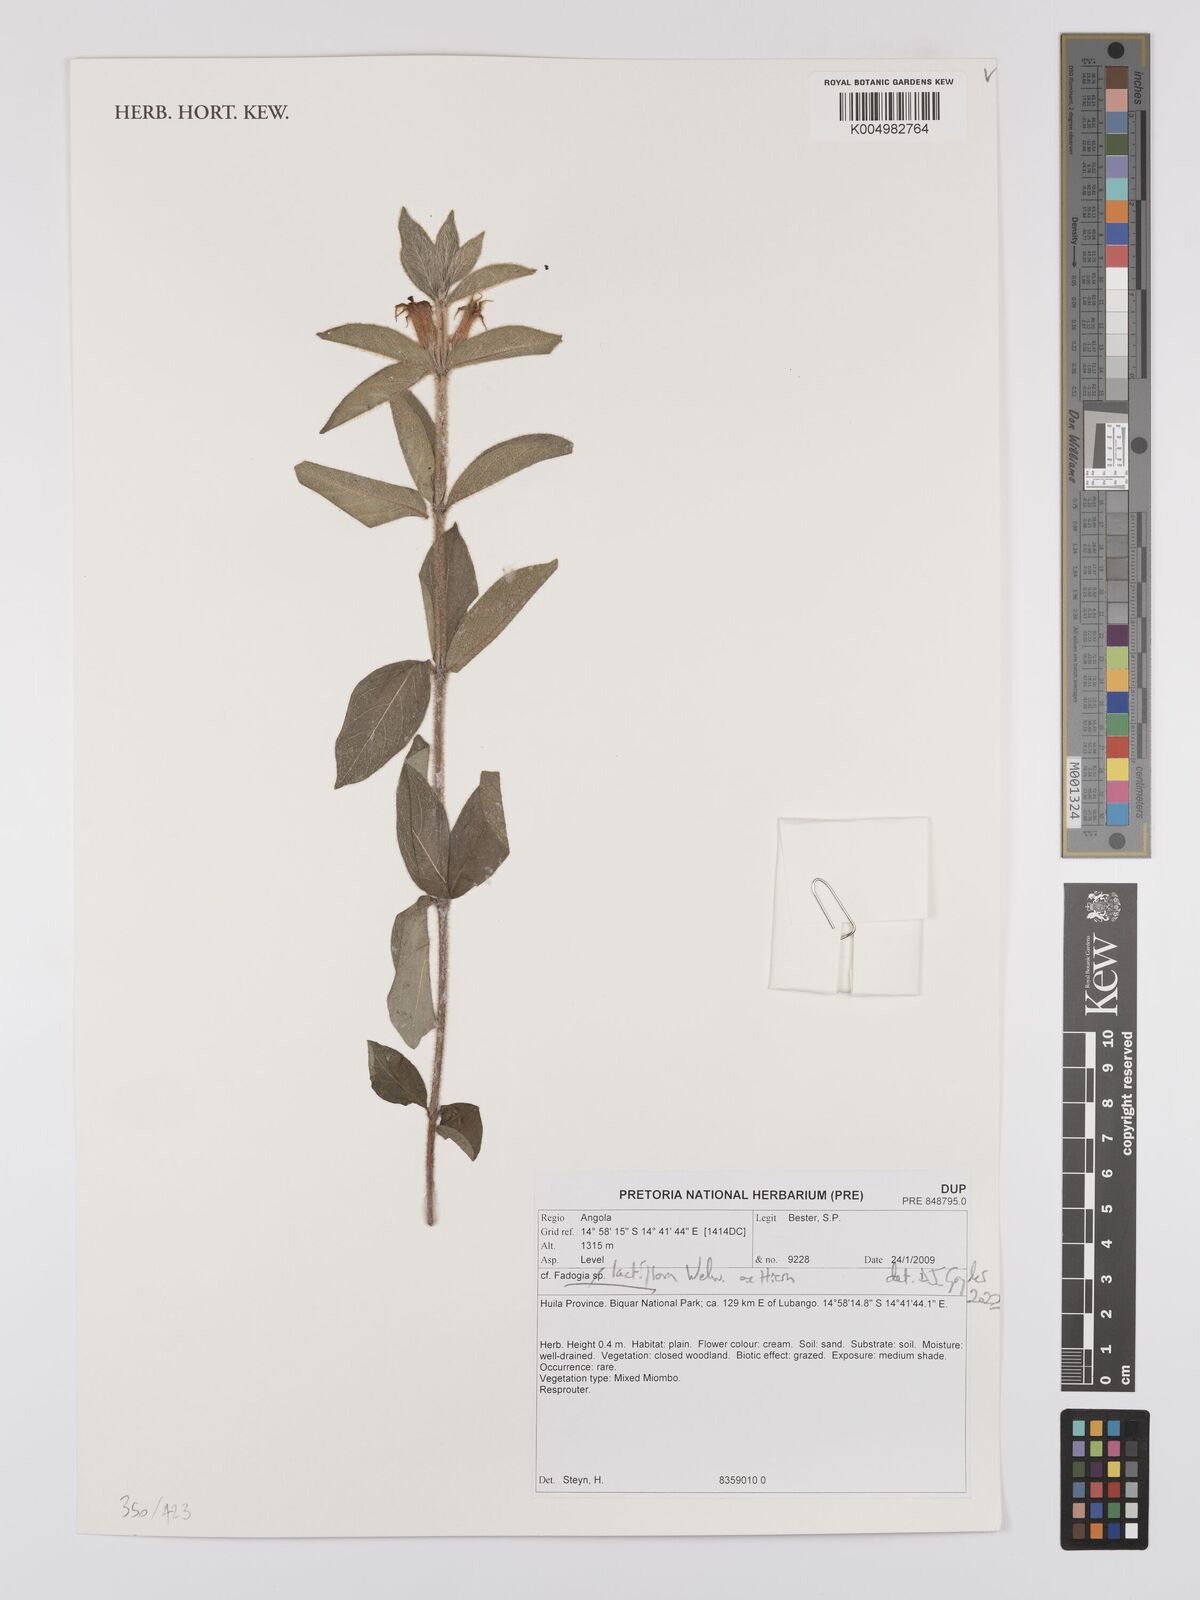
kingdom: Plantae
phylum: Tracheophyta
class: Magnoliopsida
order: Gentianales
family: Rubiaceae
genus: Fadogia
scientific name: Fadogia lactiflora
